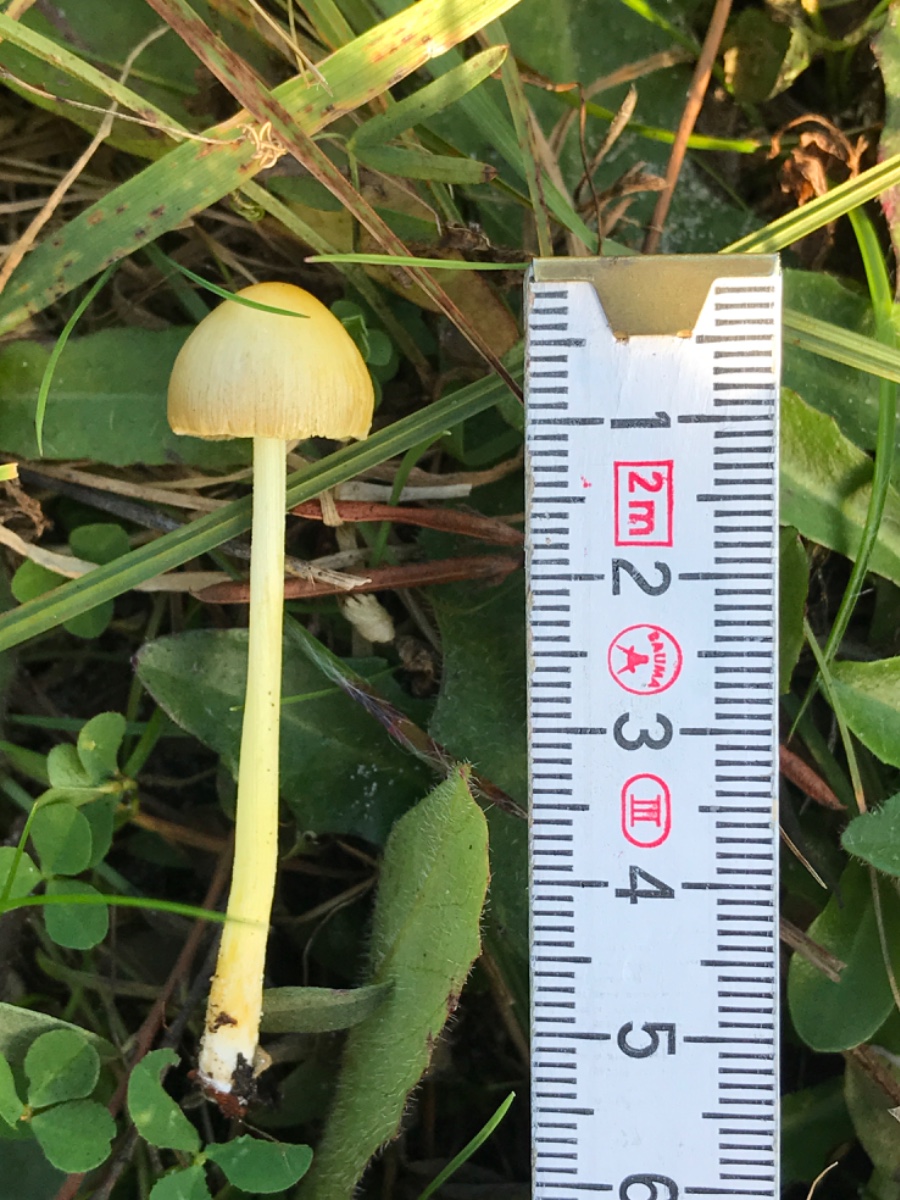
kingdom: Fungi
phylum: Basidiomycota
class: Agaricomycetes
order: Agaricales
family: Bolbitiaceae
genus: Bolbitius
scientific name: Bolbitius titubans
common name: almindelig gulhat
